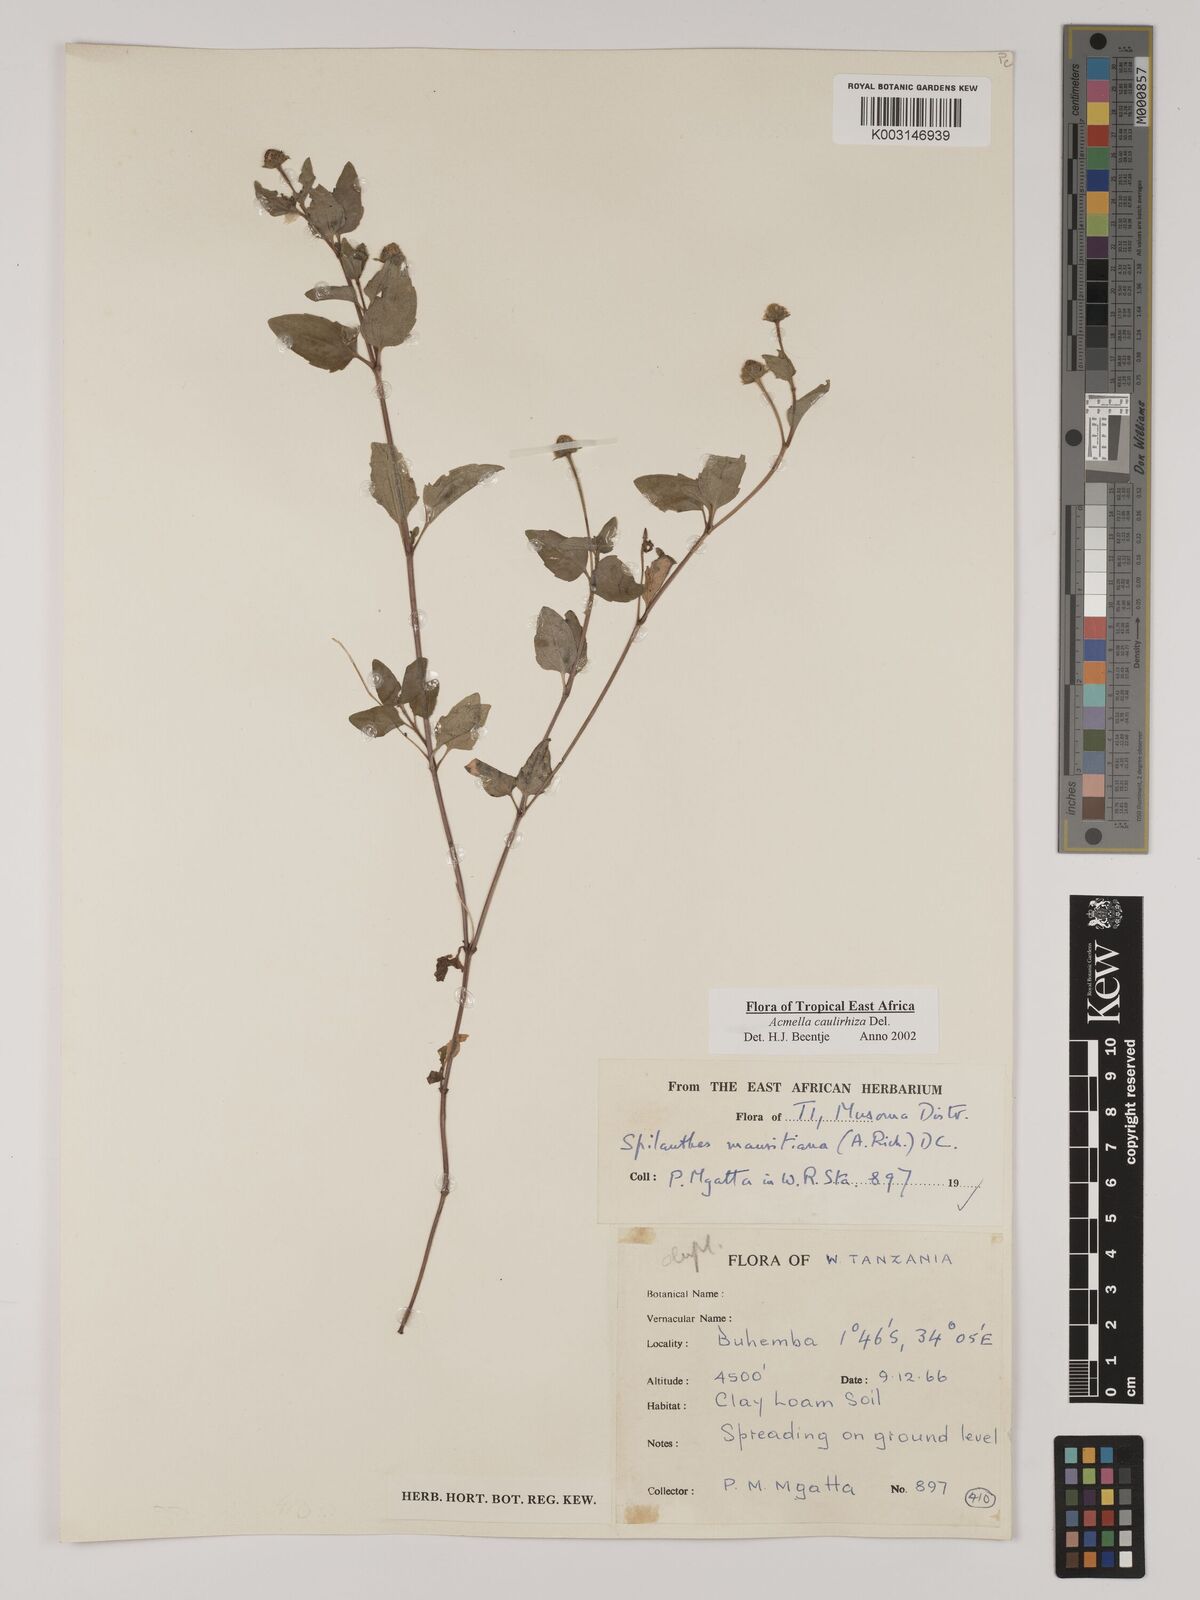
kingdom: Plantae
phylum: Tracheophyta
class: Magnoliopsida
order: Asterales
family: Asteraceae
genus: Acmella
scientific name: Acmella caulirhiza
